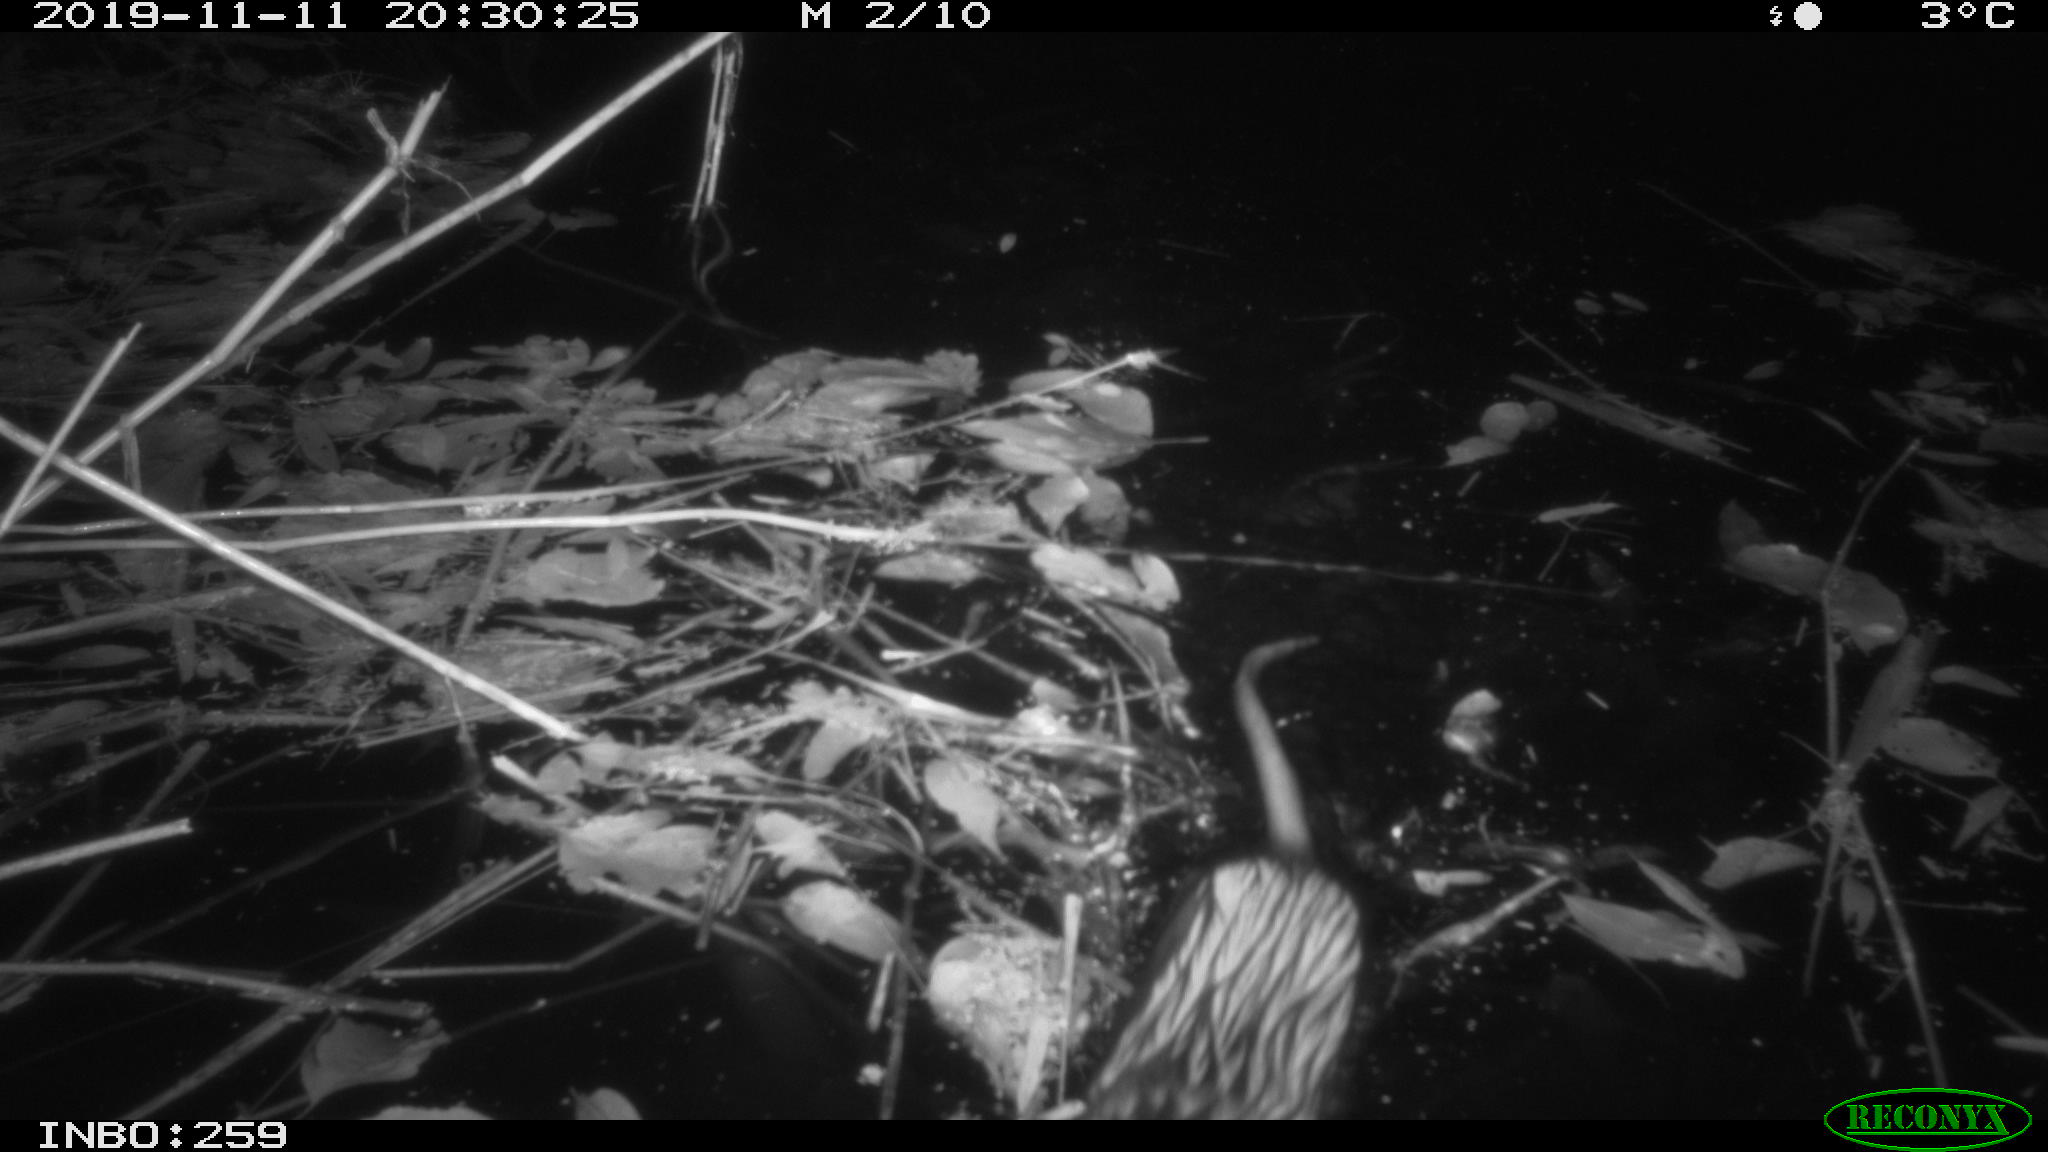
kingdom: Animalia
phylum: Chordata
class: Mammalia
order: Rodentia
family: Cricetidae
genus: Ondatra
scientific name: Ondatra zibethicus
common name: Muskrat
